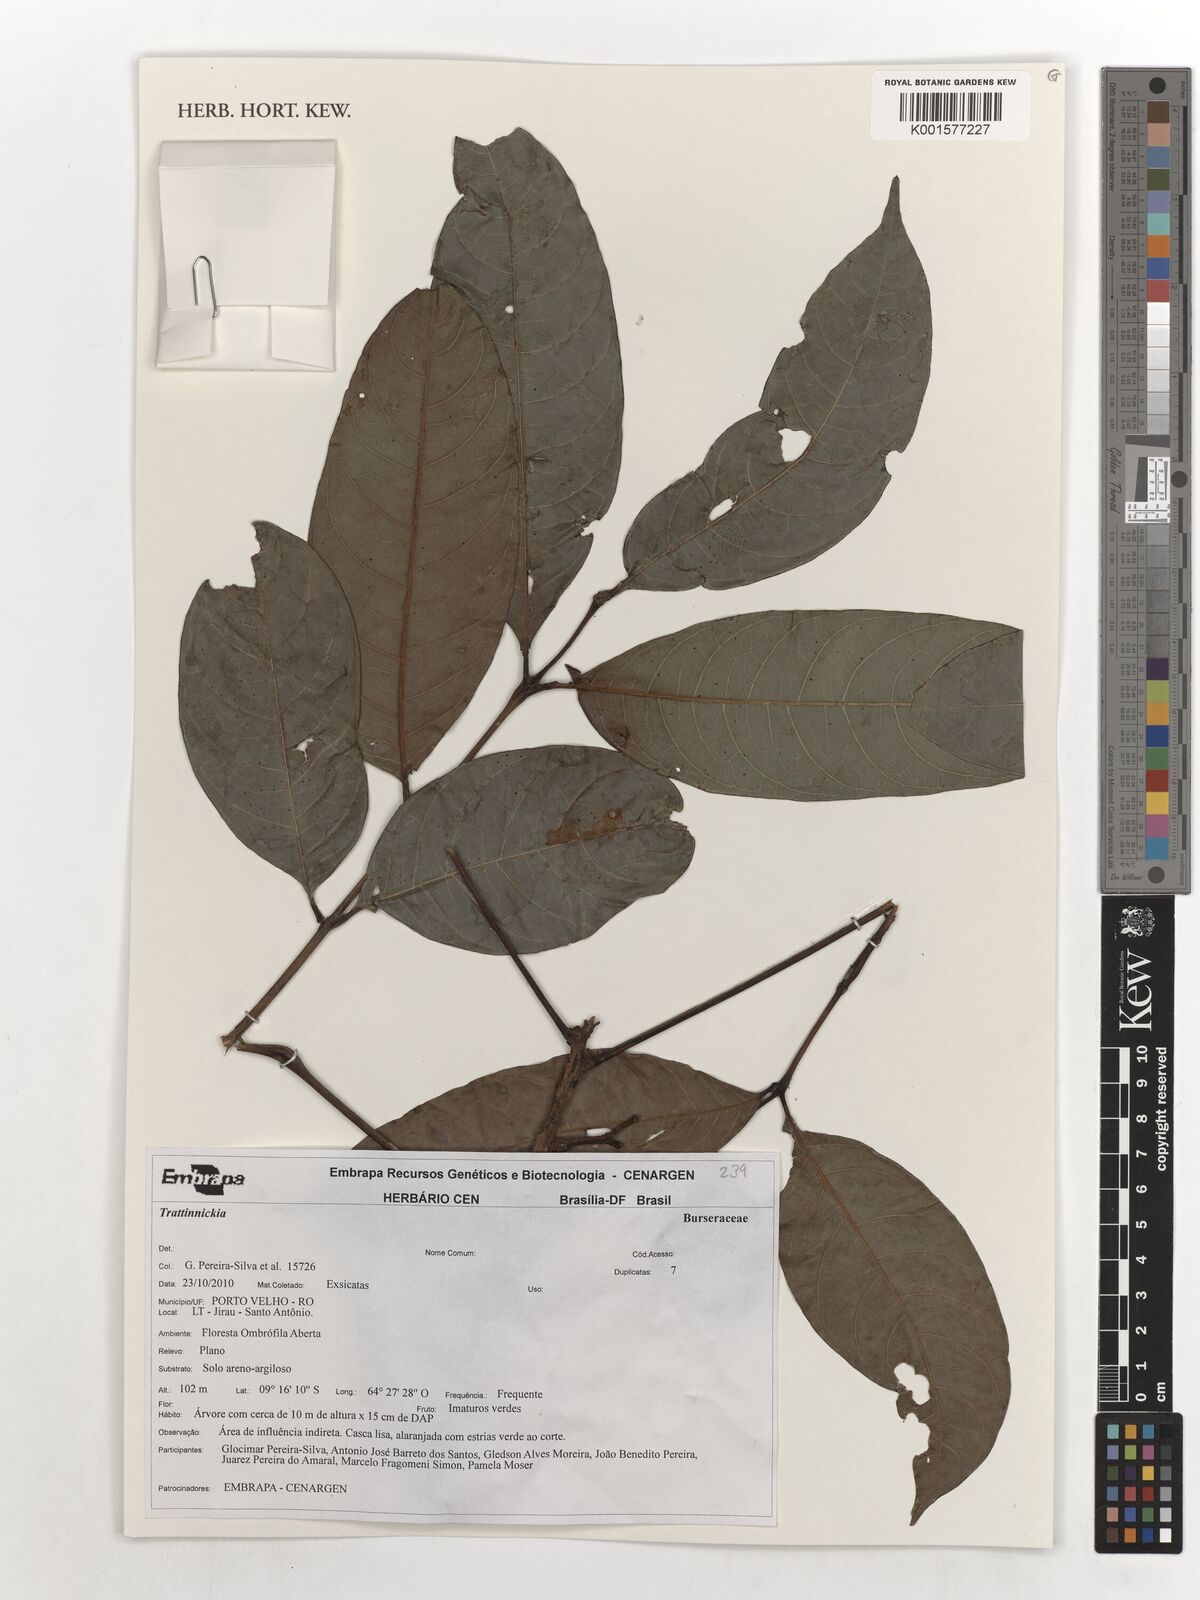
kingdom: Plantae
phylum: Tracheophyta
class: Magnoliopsida
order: Sapindales
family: Burseraceae
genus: Trattinnickia
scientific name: Trattinnickia
